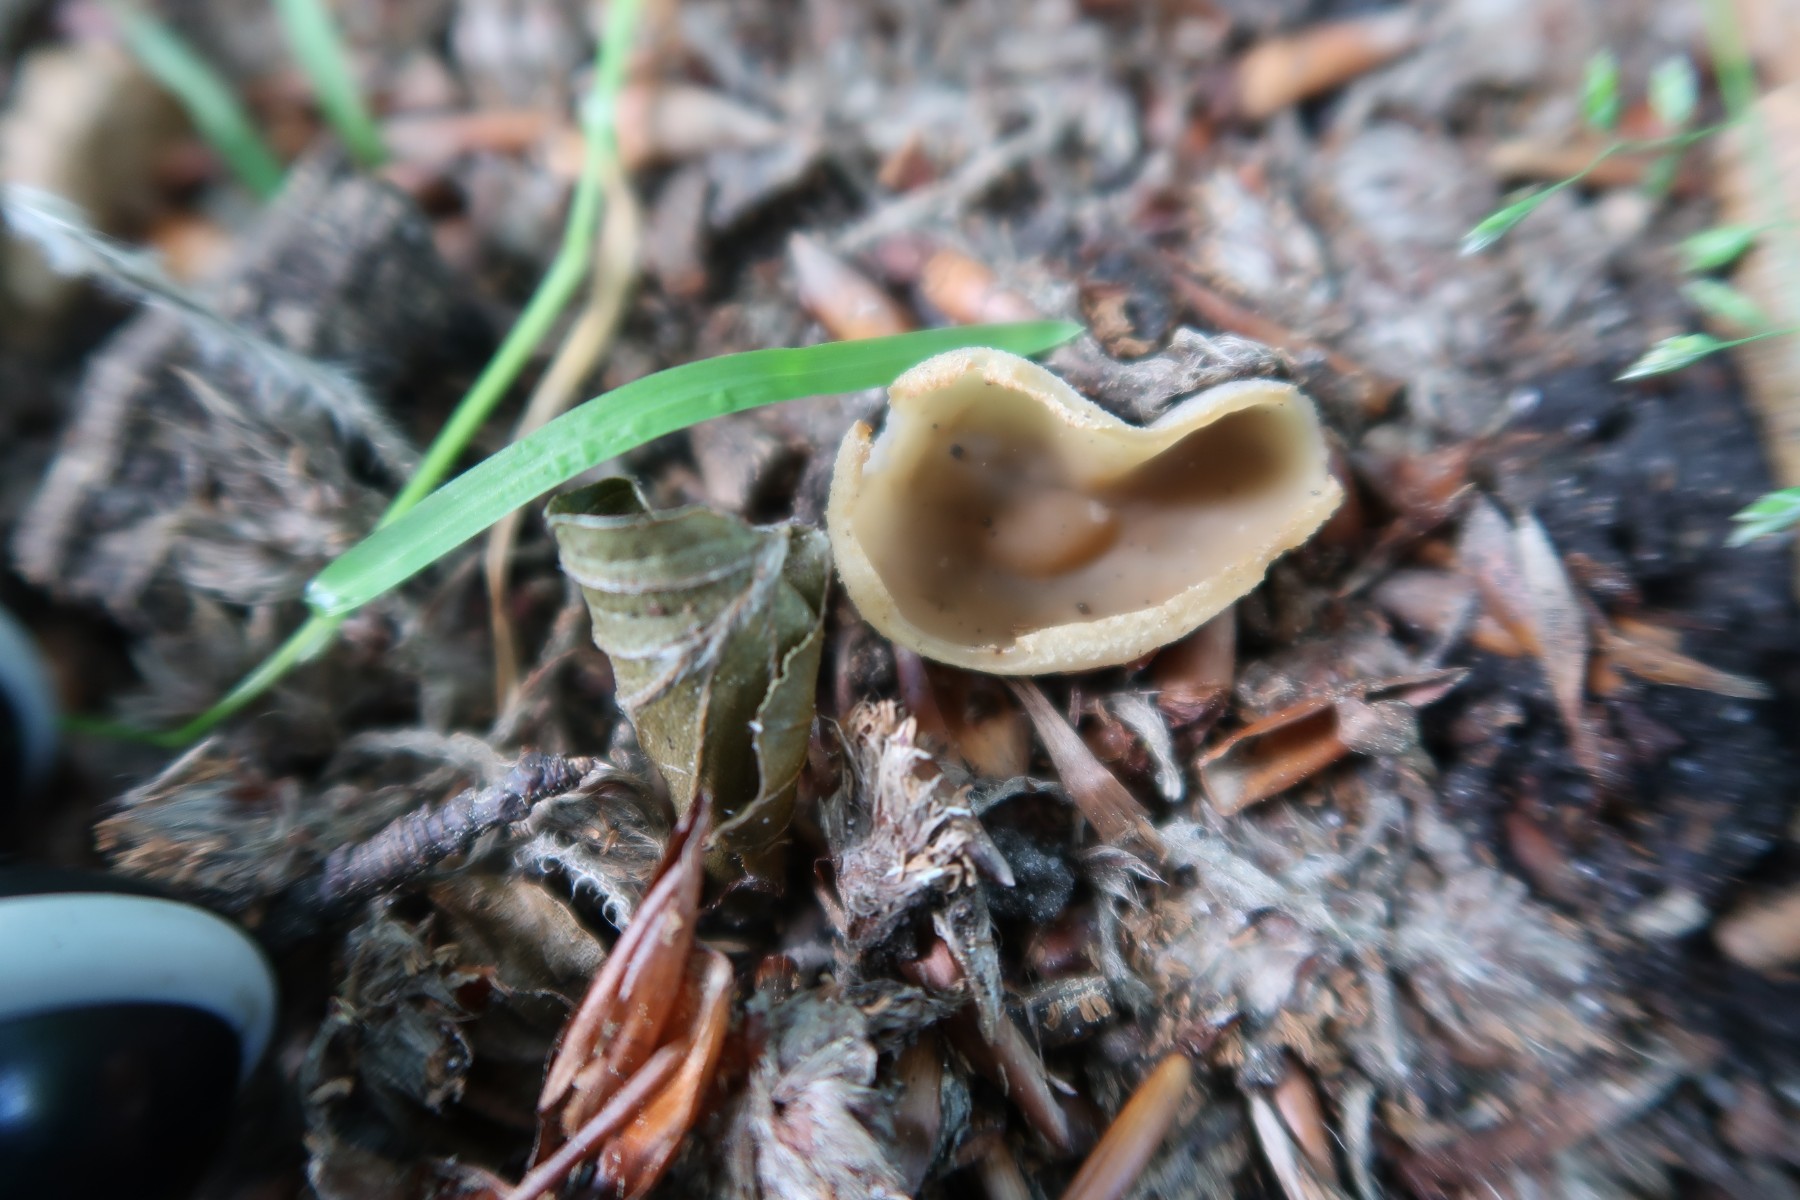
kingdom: Fungi
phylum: Ascomycota
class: Pezizomycetes
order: Pezizales
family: Pezizaceae
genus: Peziza
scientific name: Peziza arvernensis
